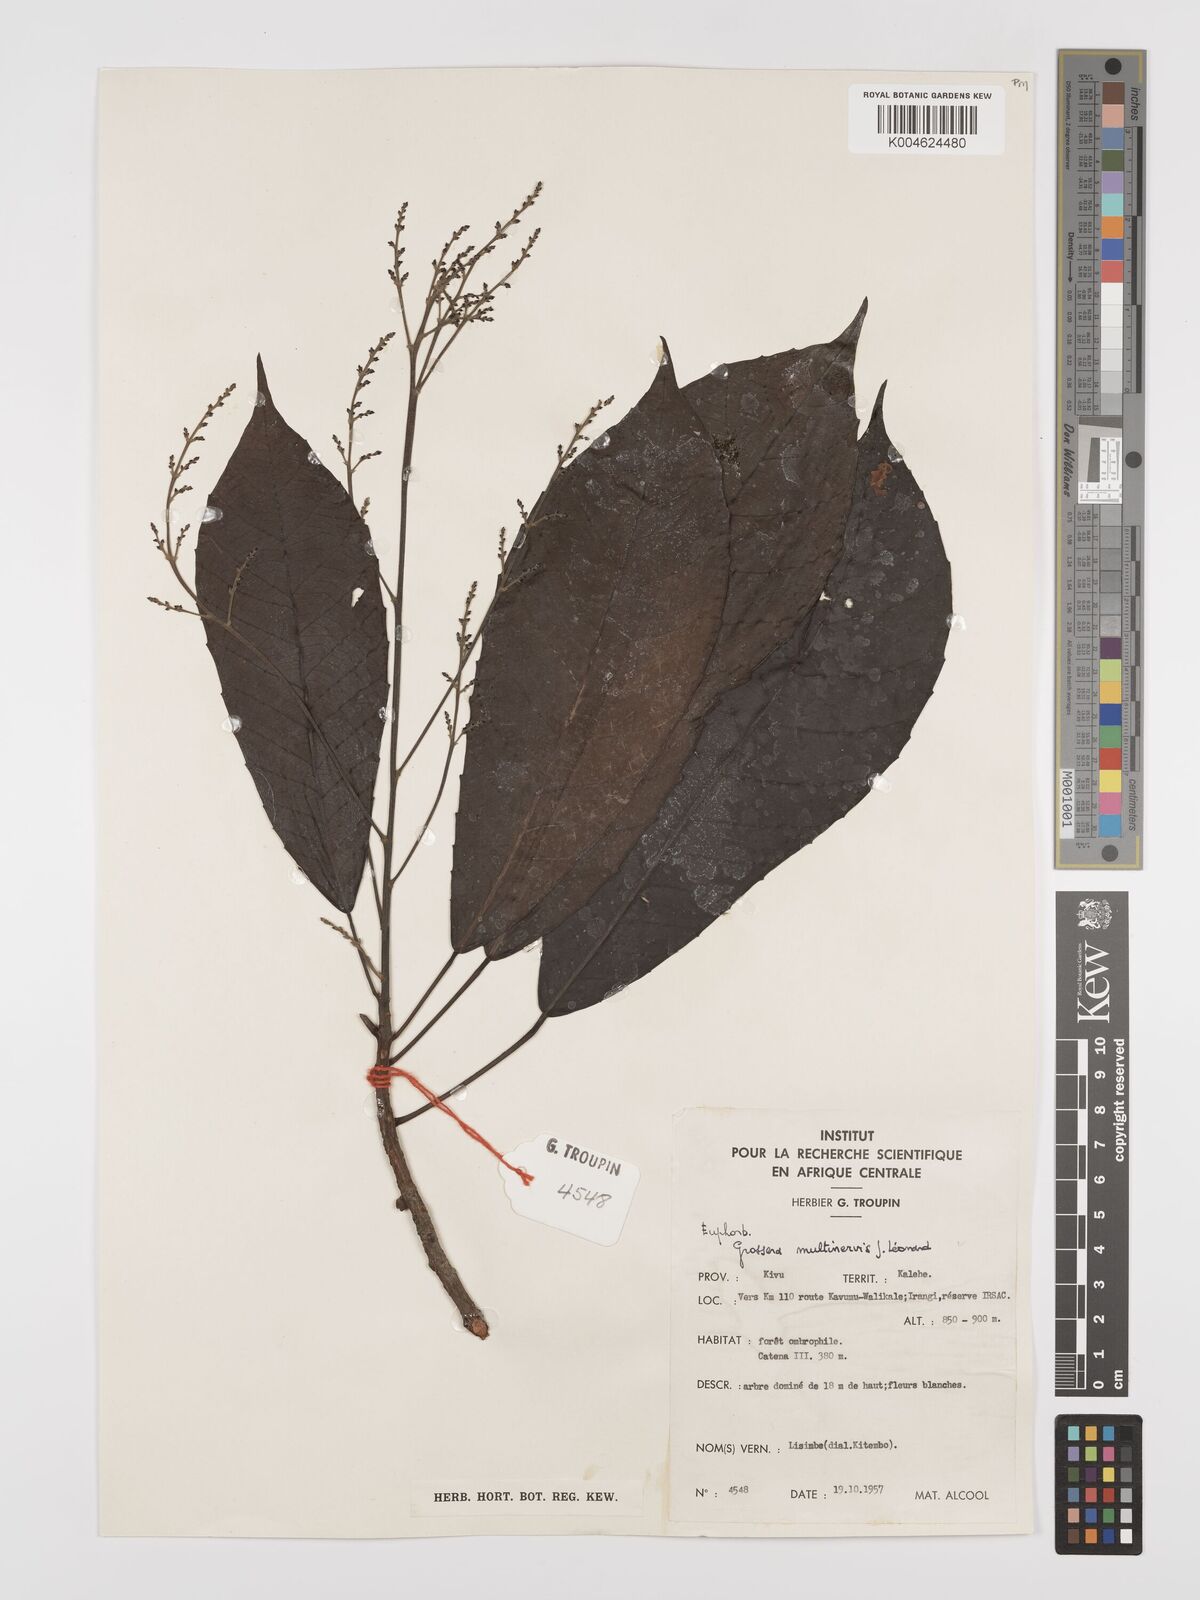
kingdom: Plantae
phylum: Tracheophyta
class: Magnoliopsida
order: Malpighiales
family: Euphorbiaceae
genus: Grossera
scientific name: Grossera multinervis
